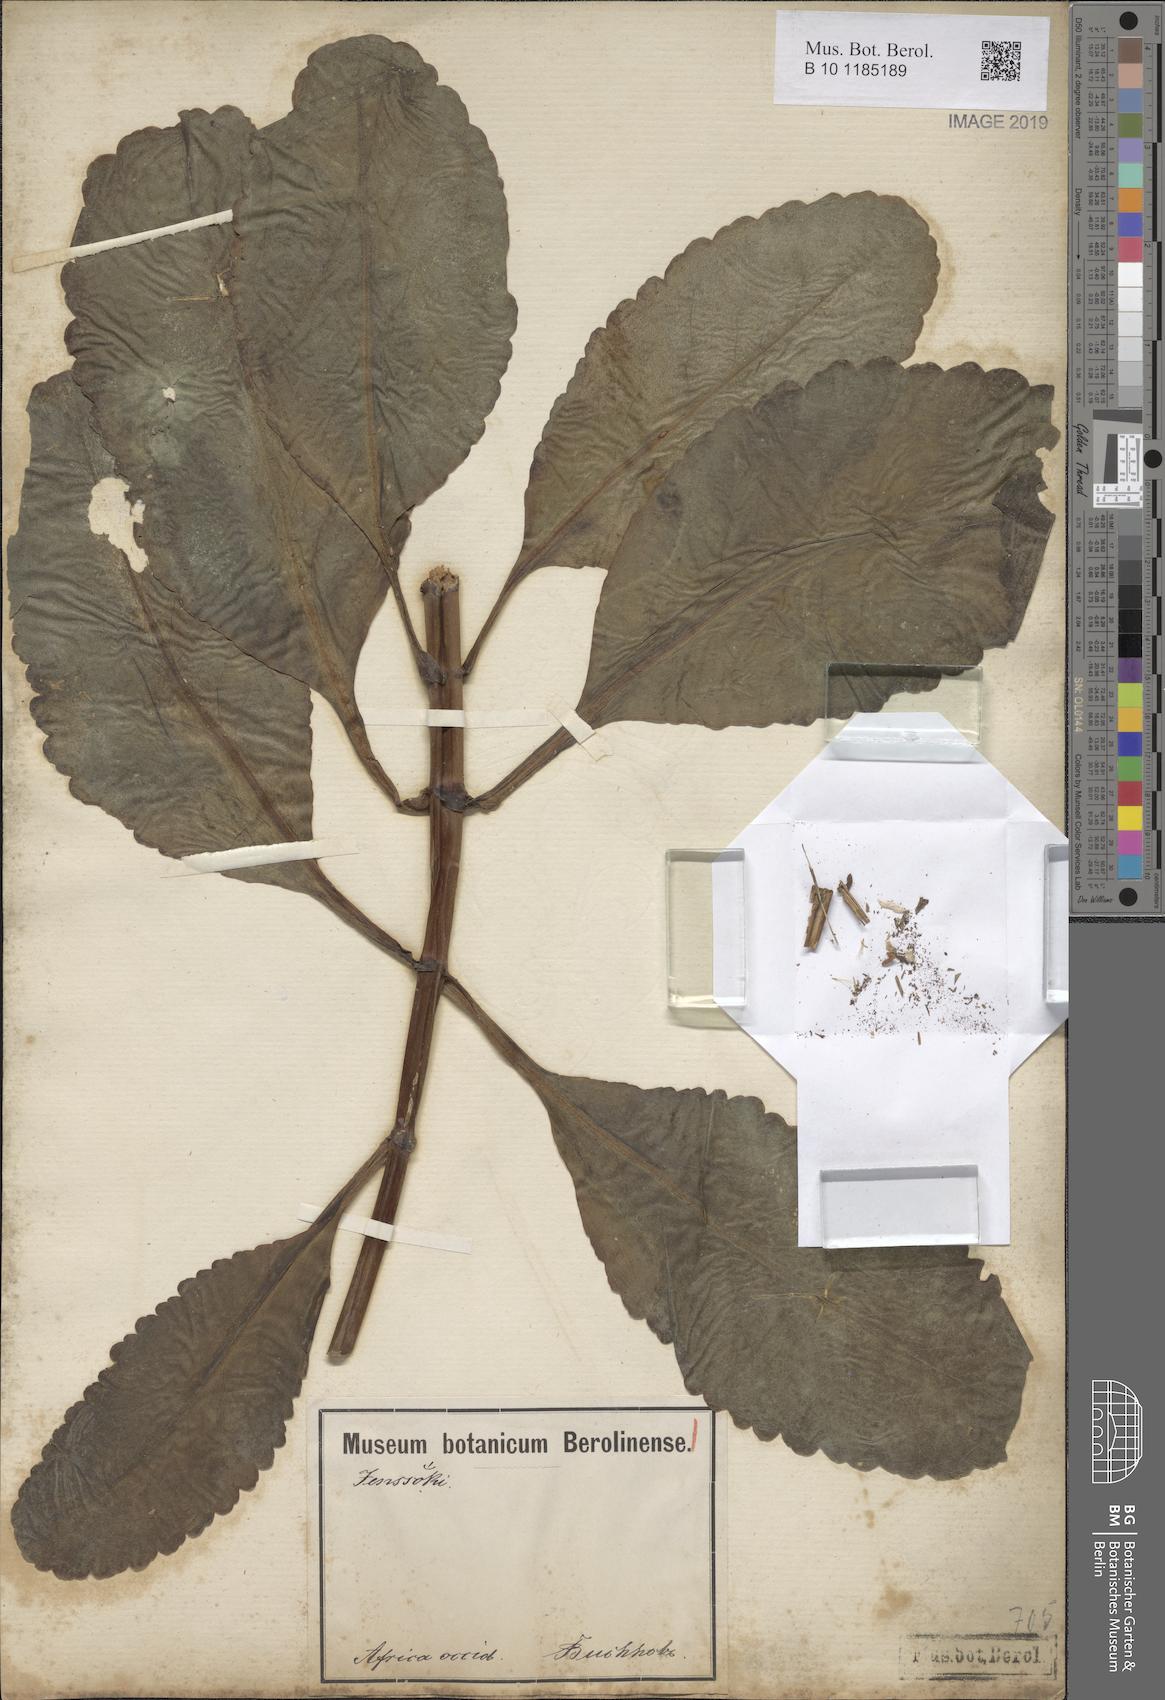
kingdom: Plantae
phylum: Tracheophyta
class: Magnoliopsida
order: Saxifragales
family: Crassulaceae
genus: Kalanchoe
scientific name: Kalanchoe crenata
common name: Neverdie
